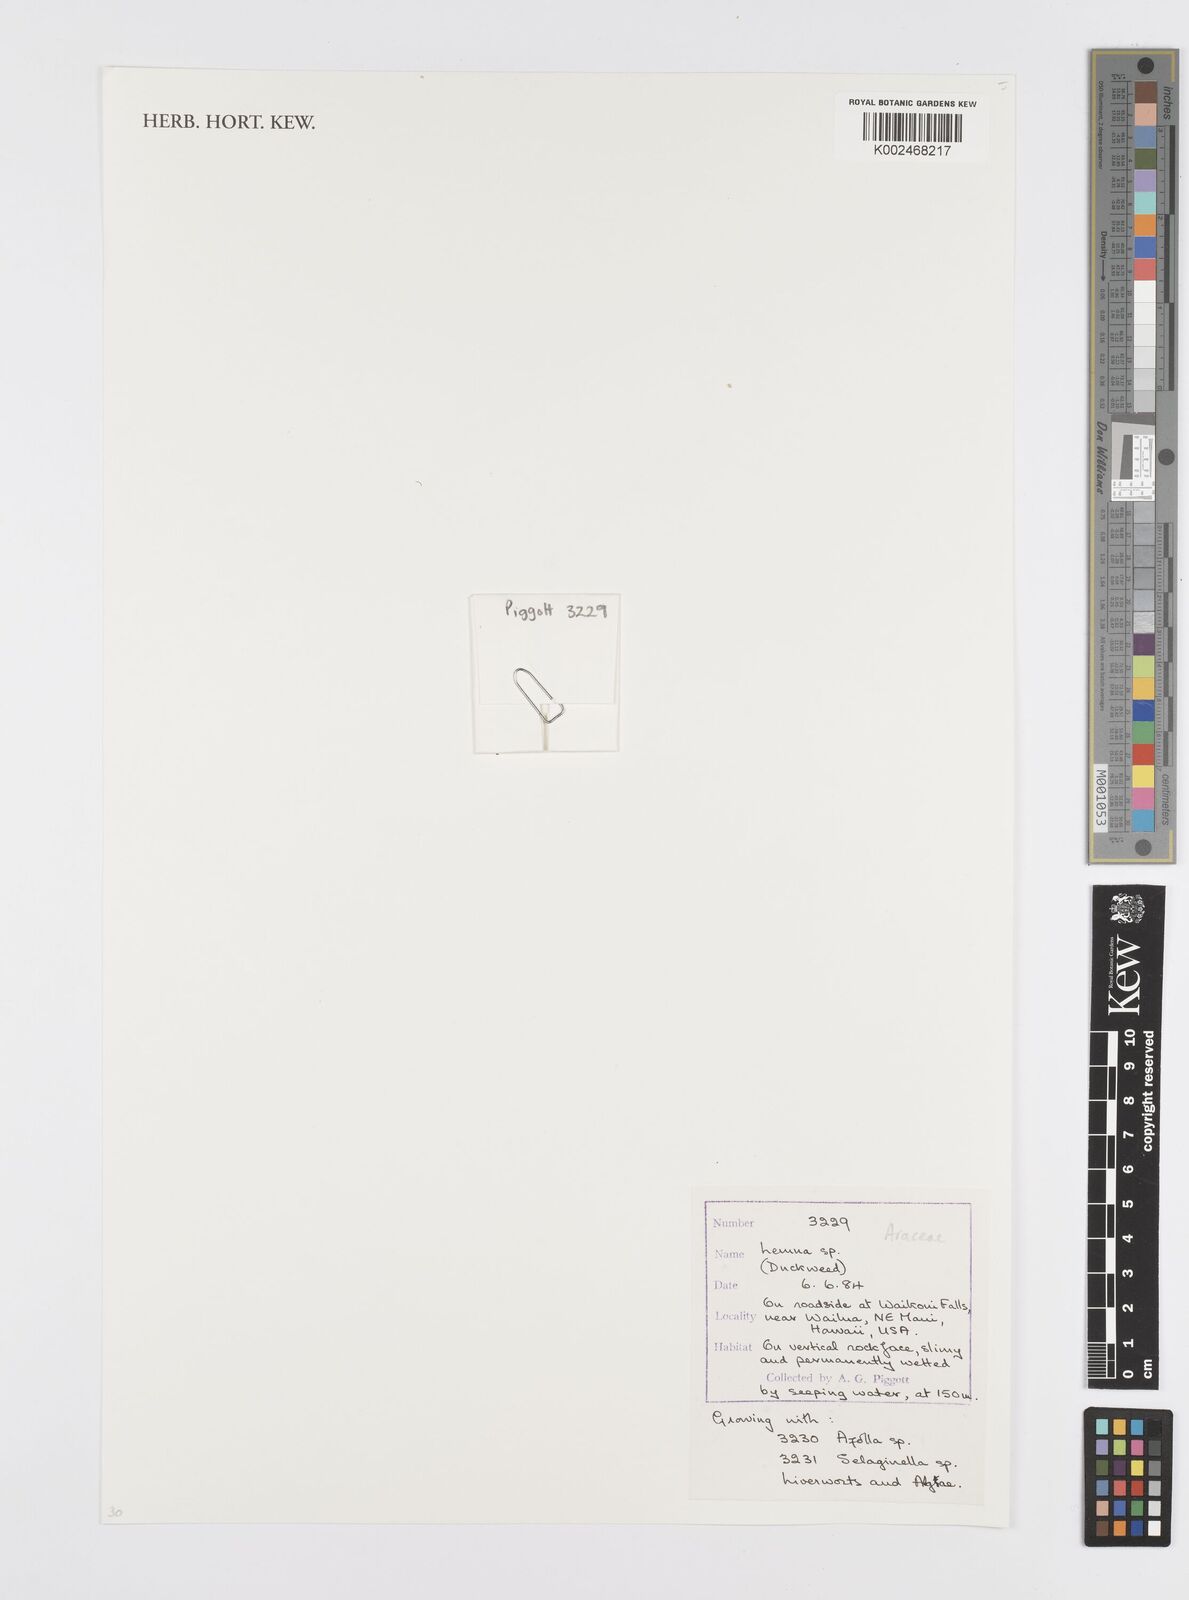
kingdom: Plantae
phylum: Tracheophyta
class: Liliopsida
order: Alismatales
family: Araceae
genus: Lemna
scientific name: Lemna minor
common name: Common duckweed
